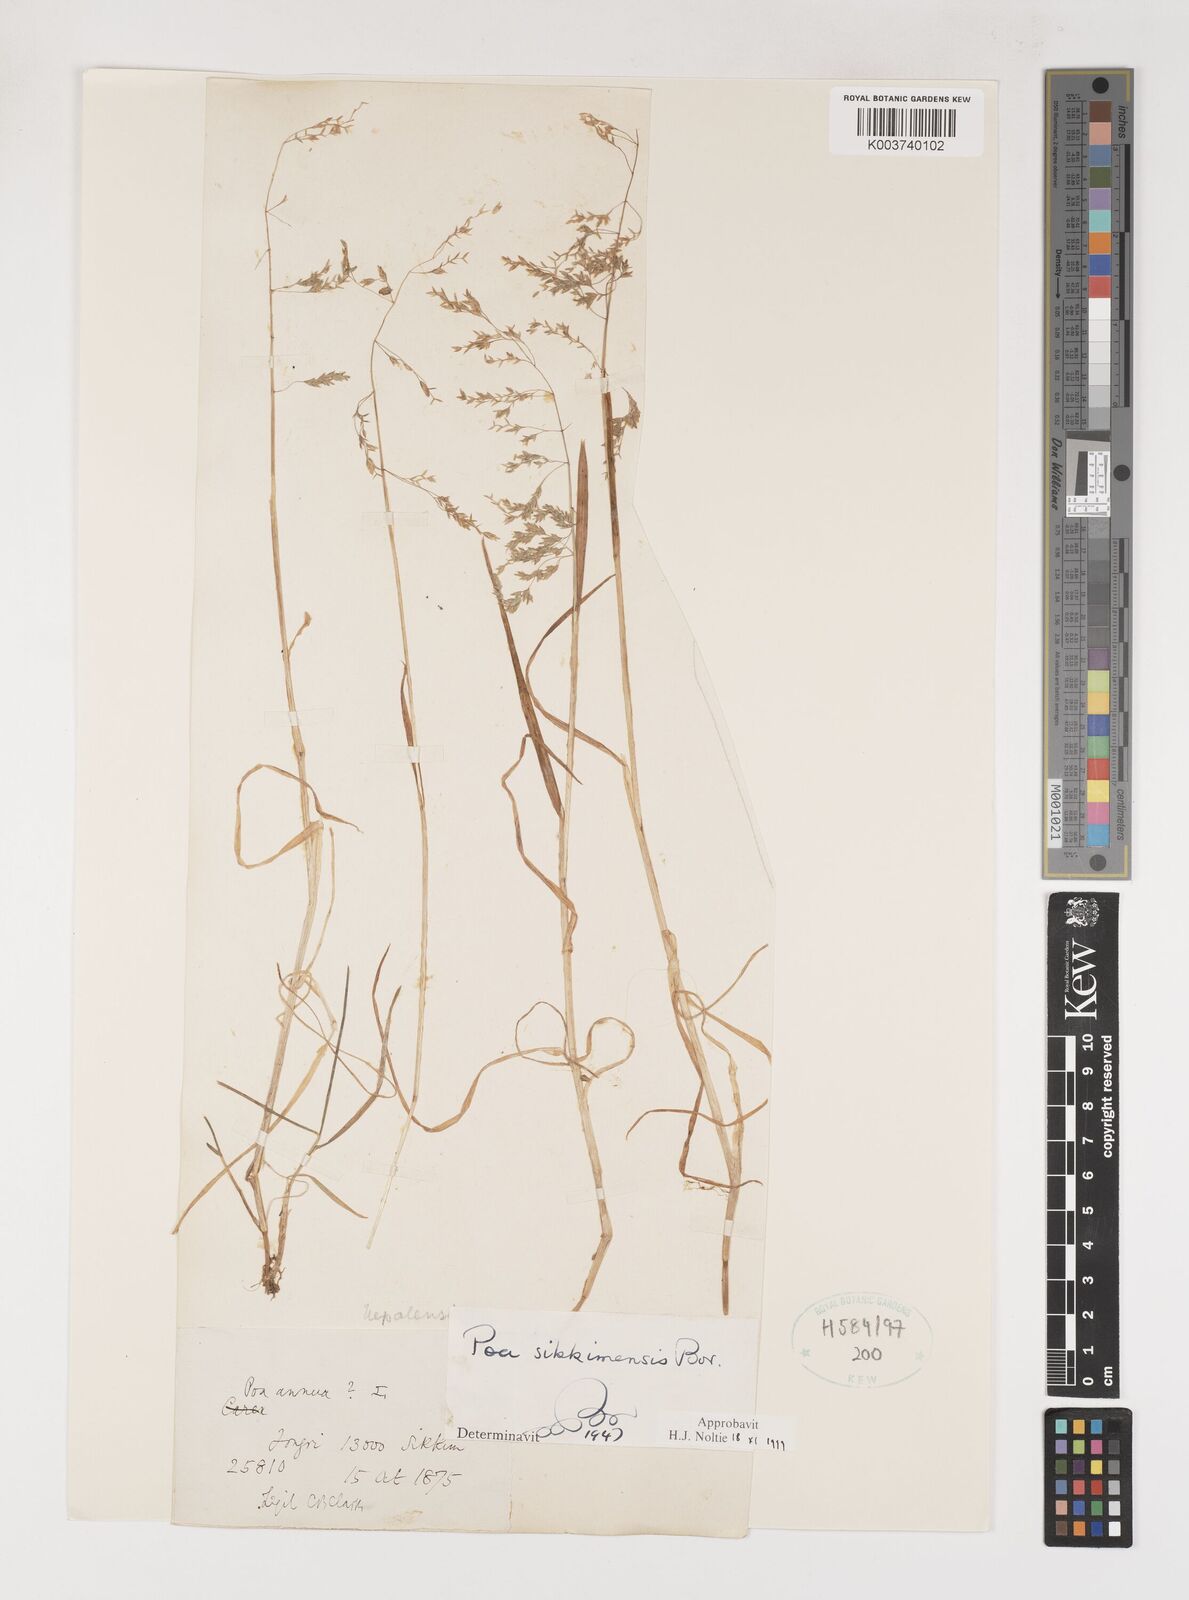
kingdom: Plantae
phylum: Tracheophyta
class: Liliopsida
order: Poales
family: Poaceae
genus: Poa
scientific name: Poa sikkimensis
